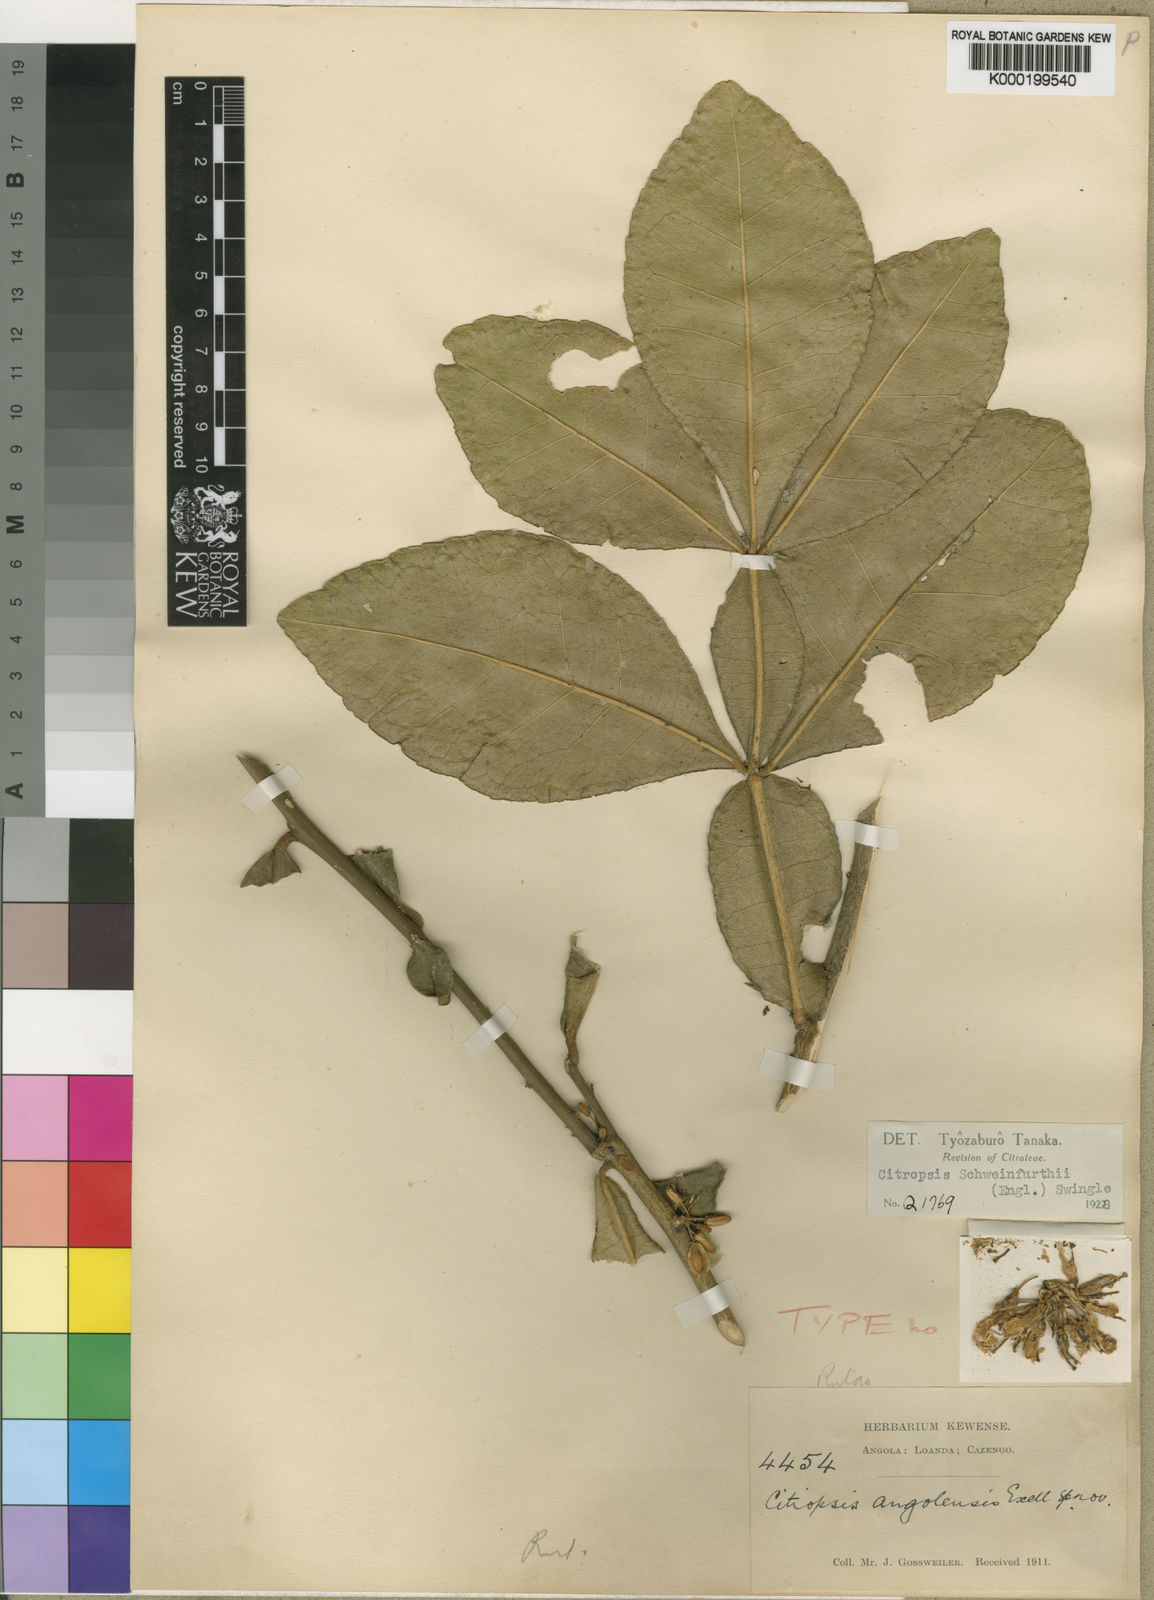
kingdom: Plantae
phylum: Tracheophyta
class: Magnoliopsida
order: Sapindales
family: Rutaceae
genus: Citropsis
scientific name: Citropsis angolensis
